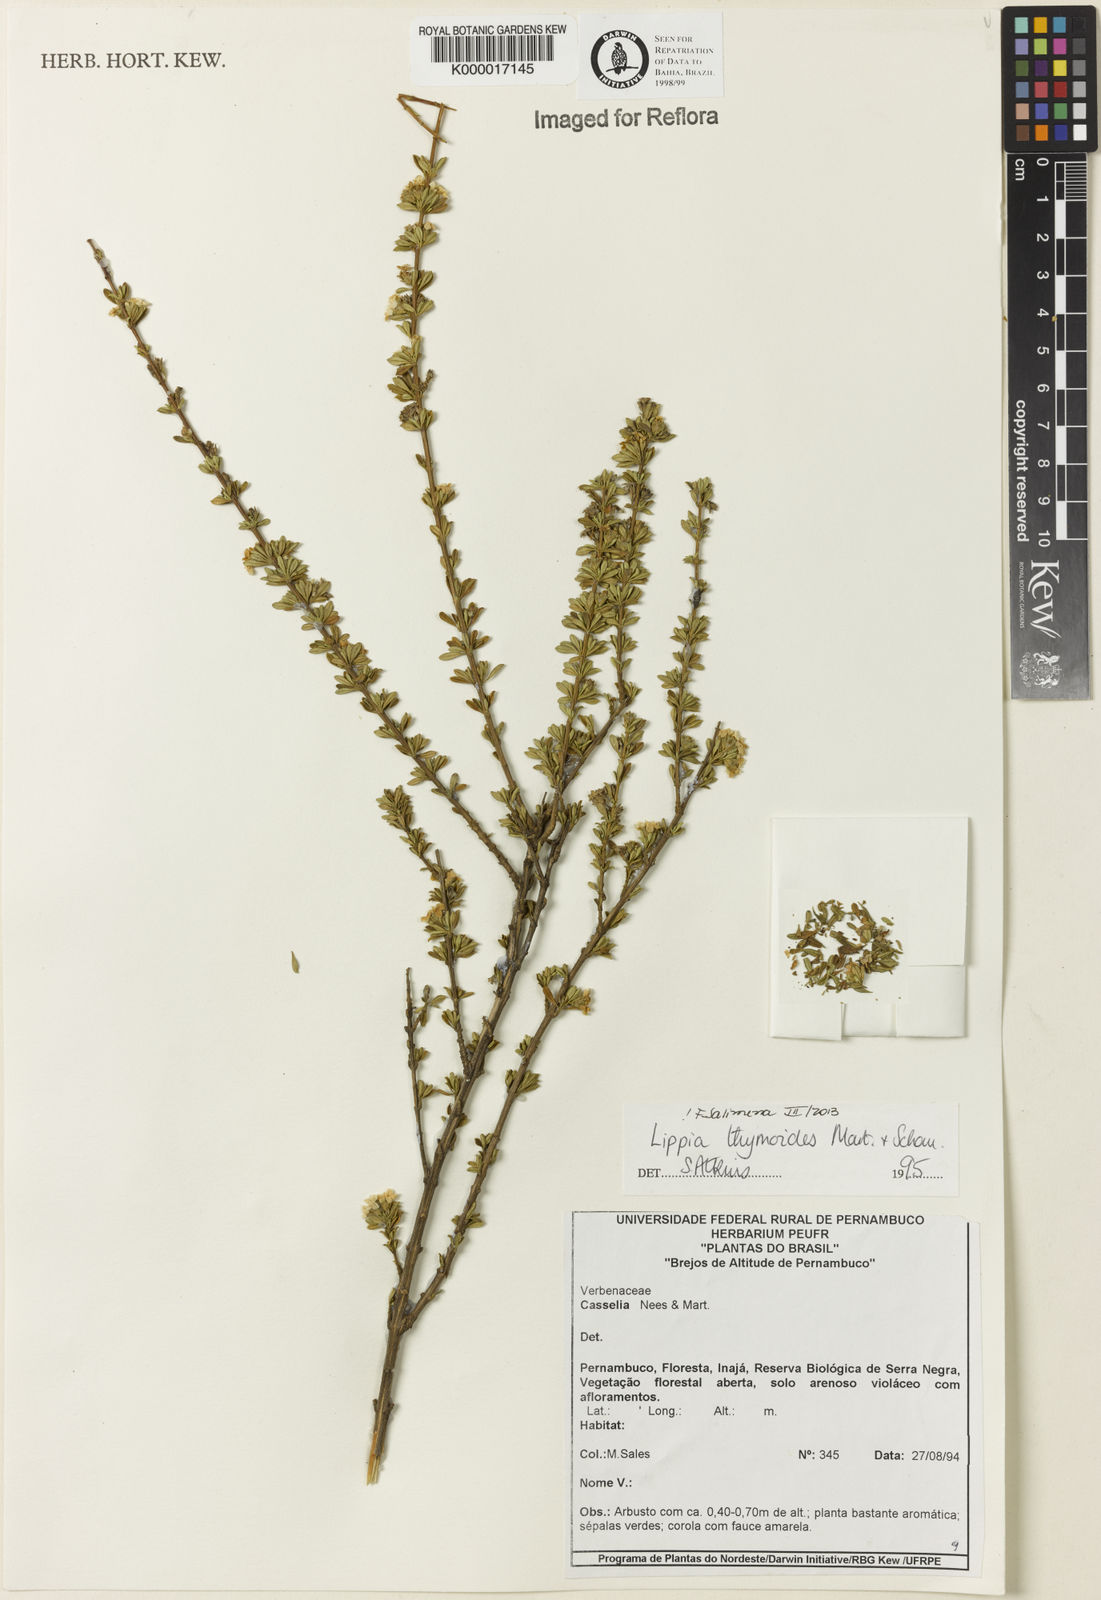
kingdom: Plantae
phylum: Tracheophyta
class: Magnoliopsida
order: Lamiales
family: Verbenaceae
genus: Lippia
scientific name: Lippia thymoides
